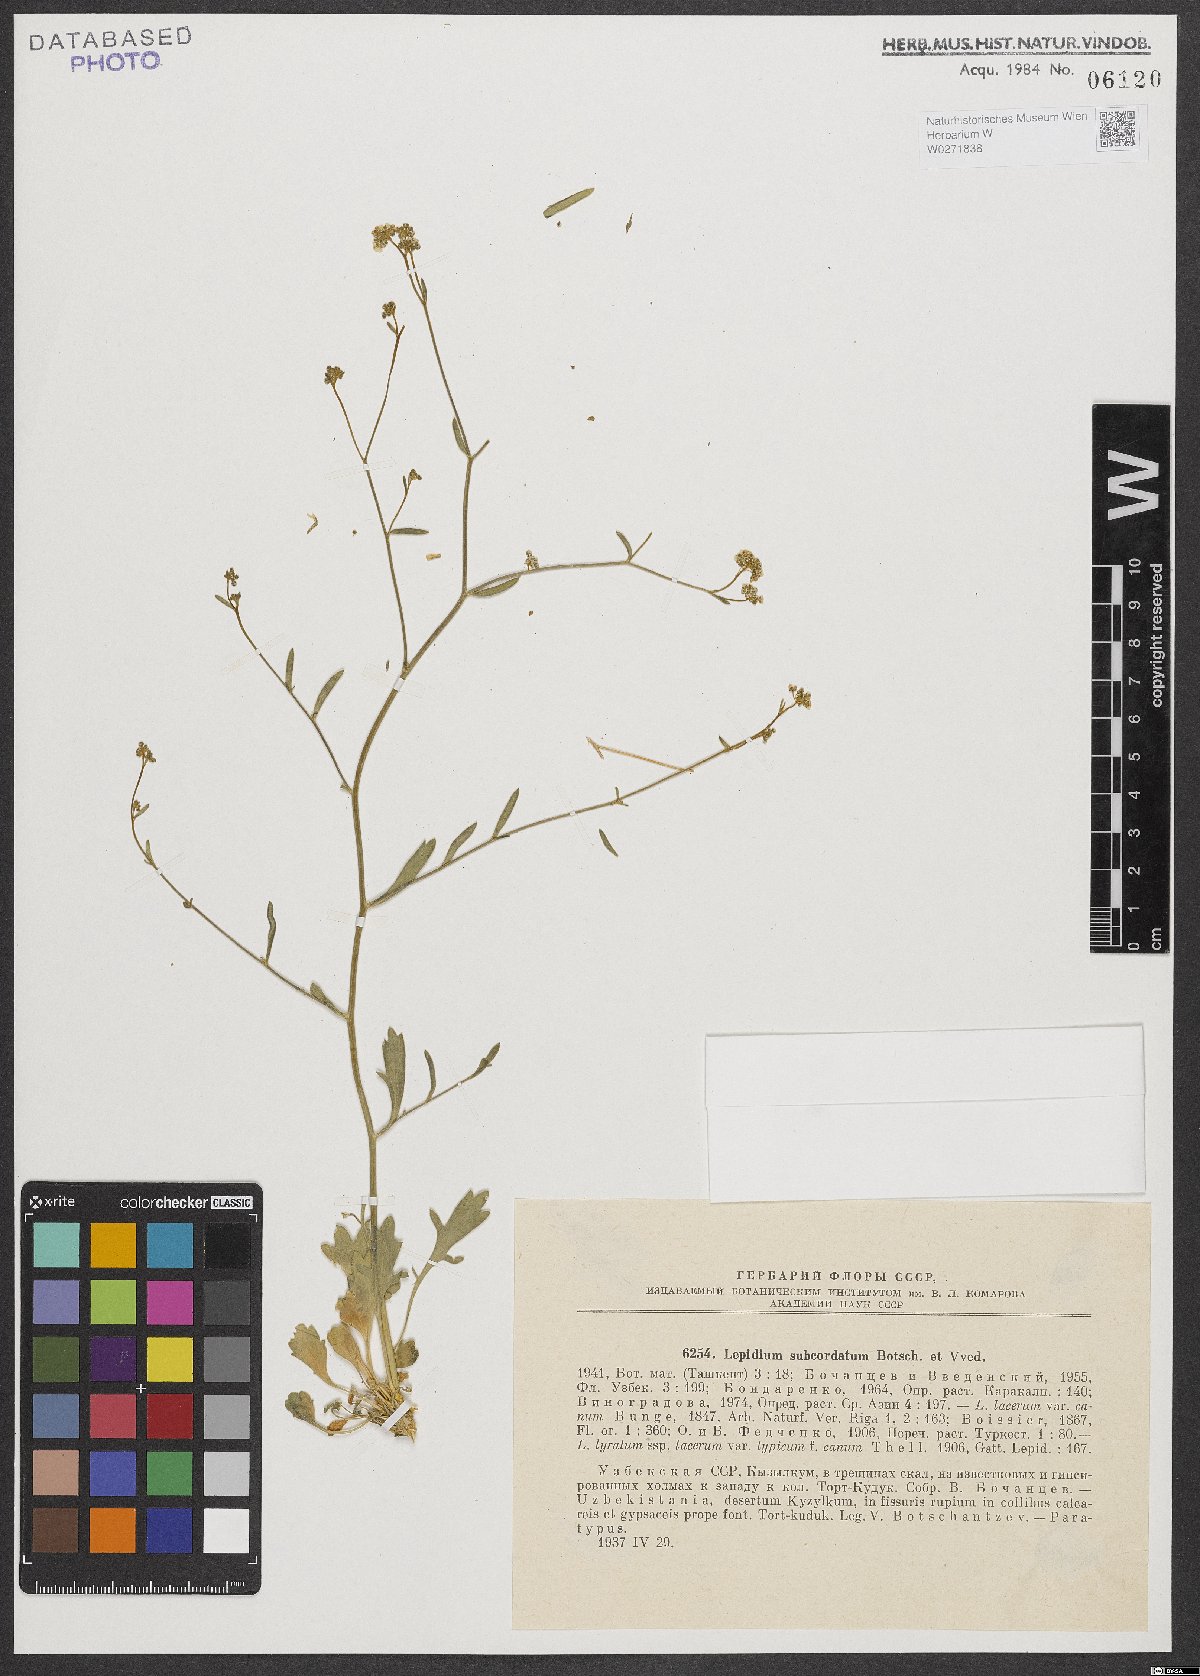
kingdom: Plantae
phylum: Tracheophyta
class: Magnoliopsida
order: Brassicales
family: Brassicaceae
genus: Lepidium
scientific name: Lepidium subcordatum
